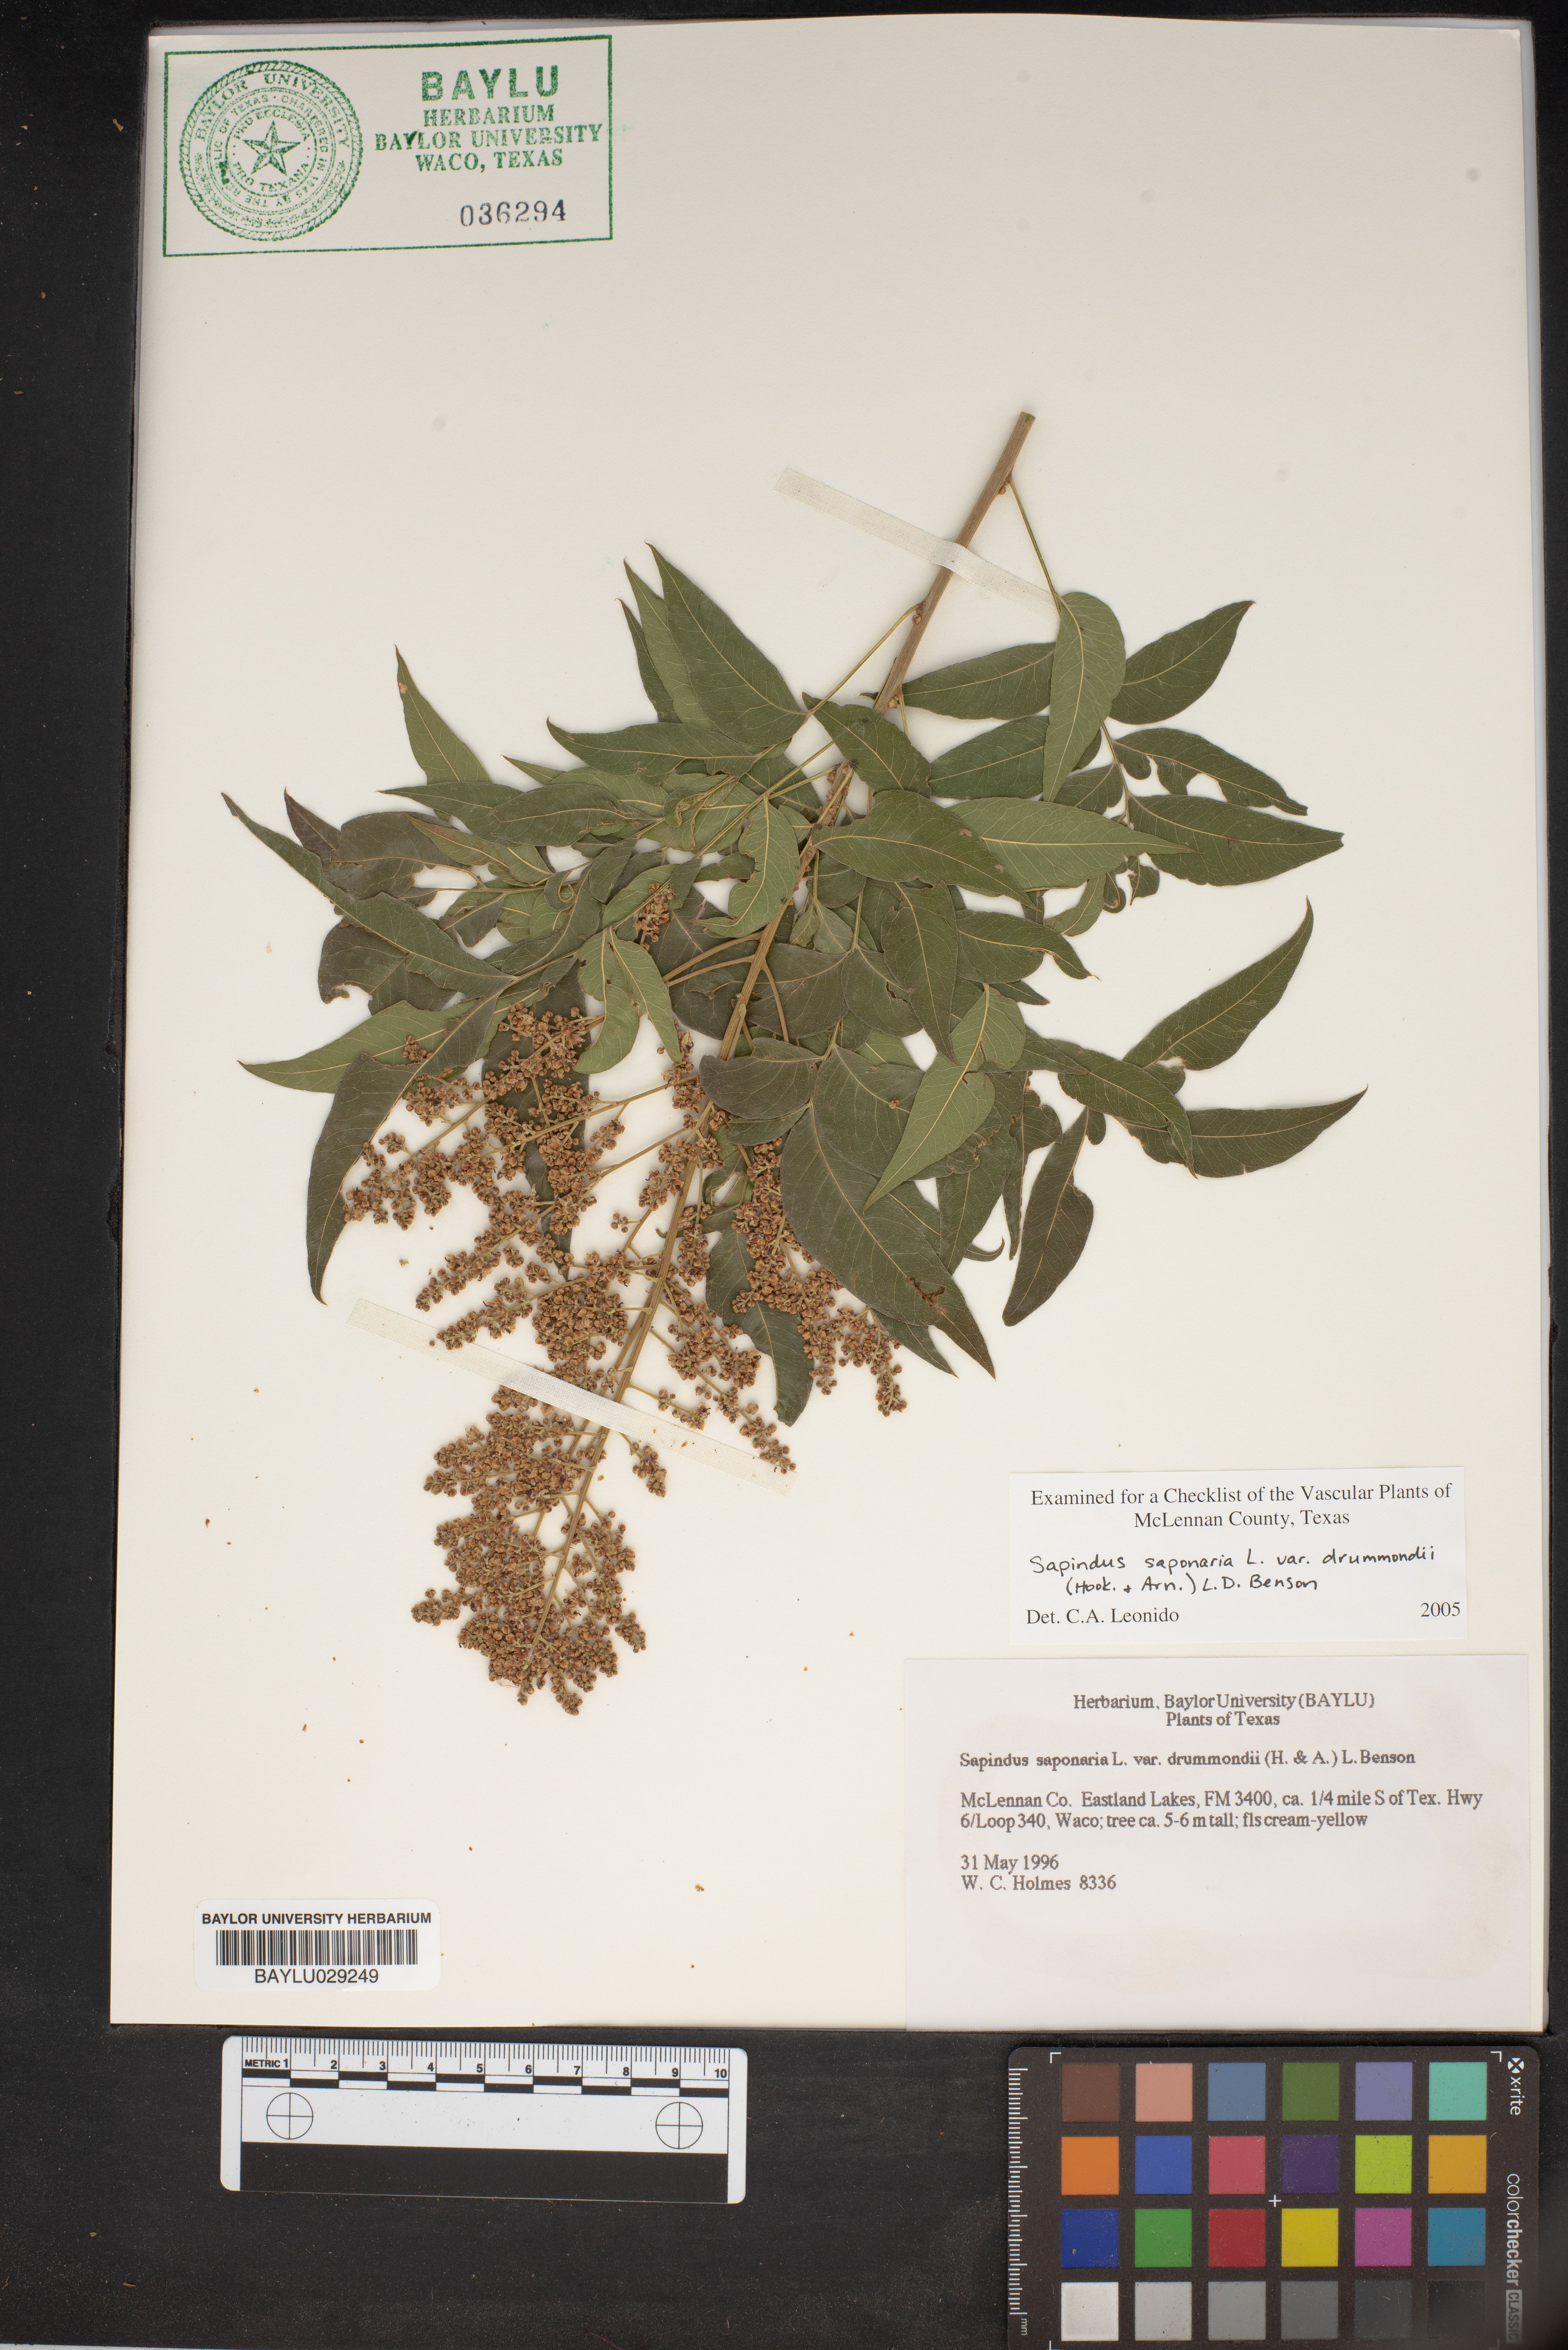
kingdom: Plantae
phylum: Tracheophyta
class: Magnoliopsida
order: Sapindales
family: Sapindaceae
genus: Sapindus
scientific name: Sapindus drummondii
